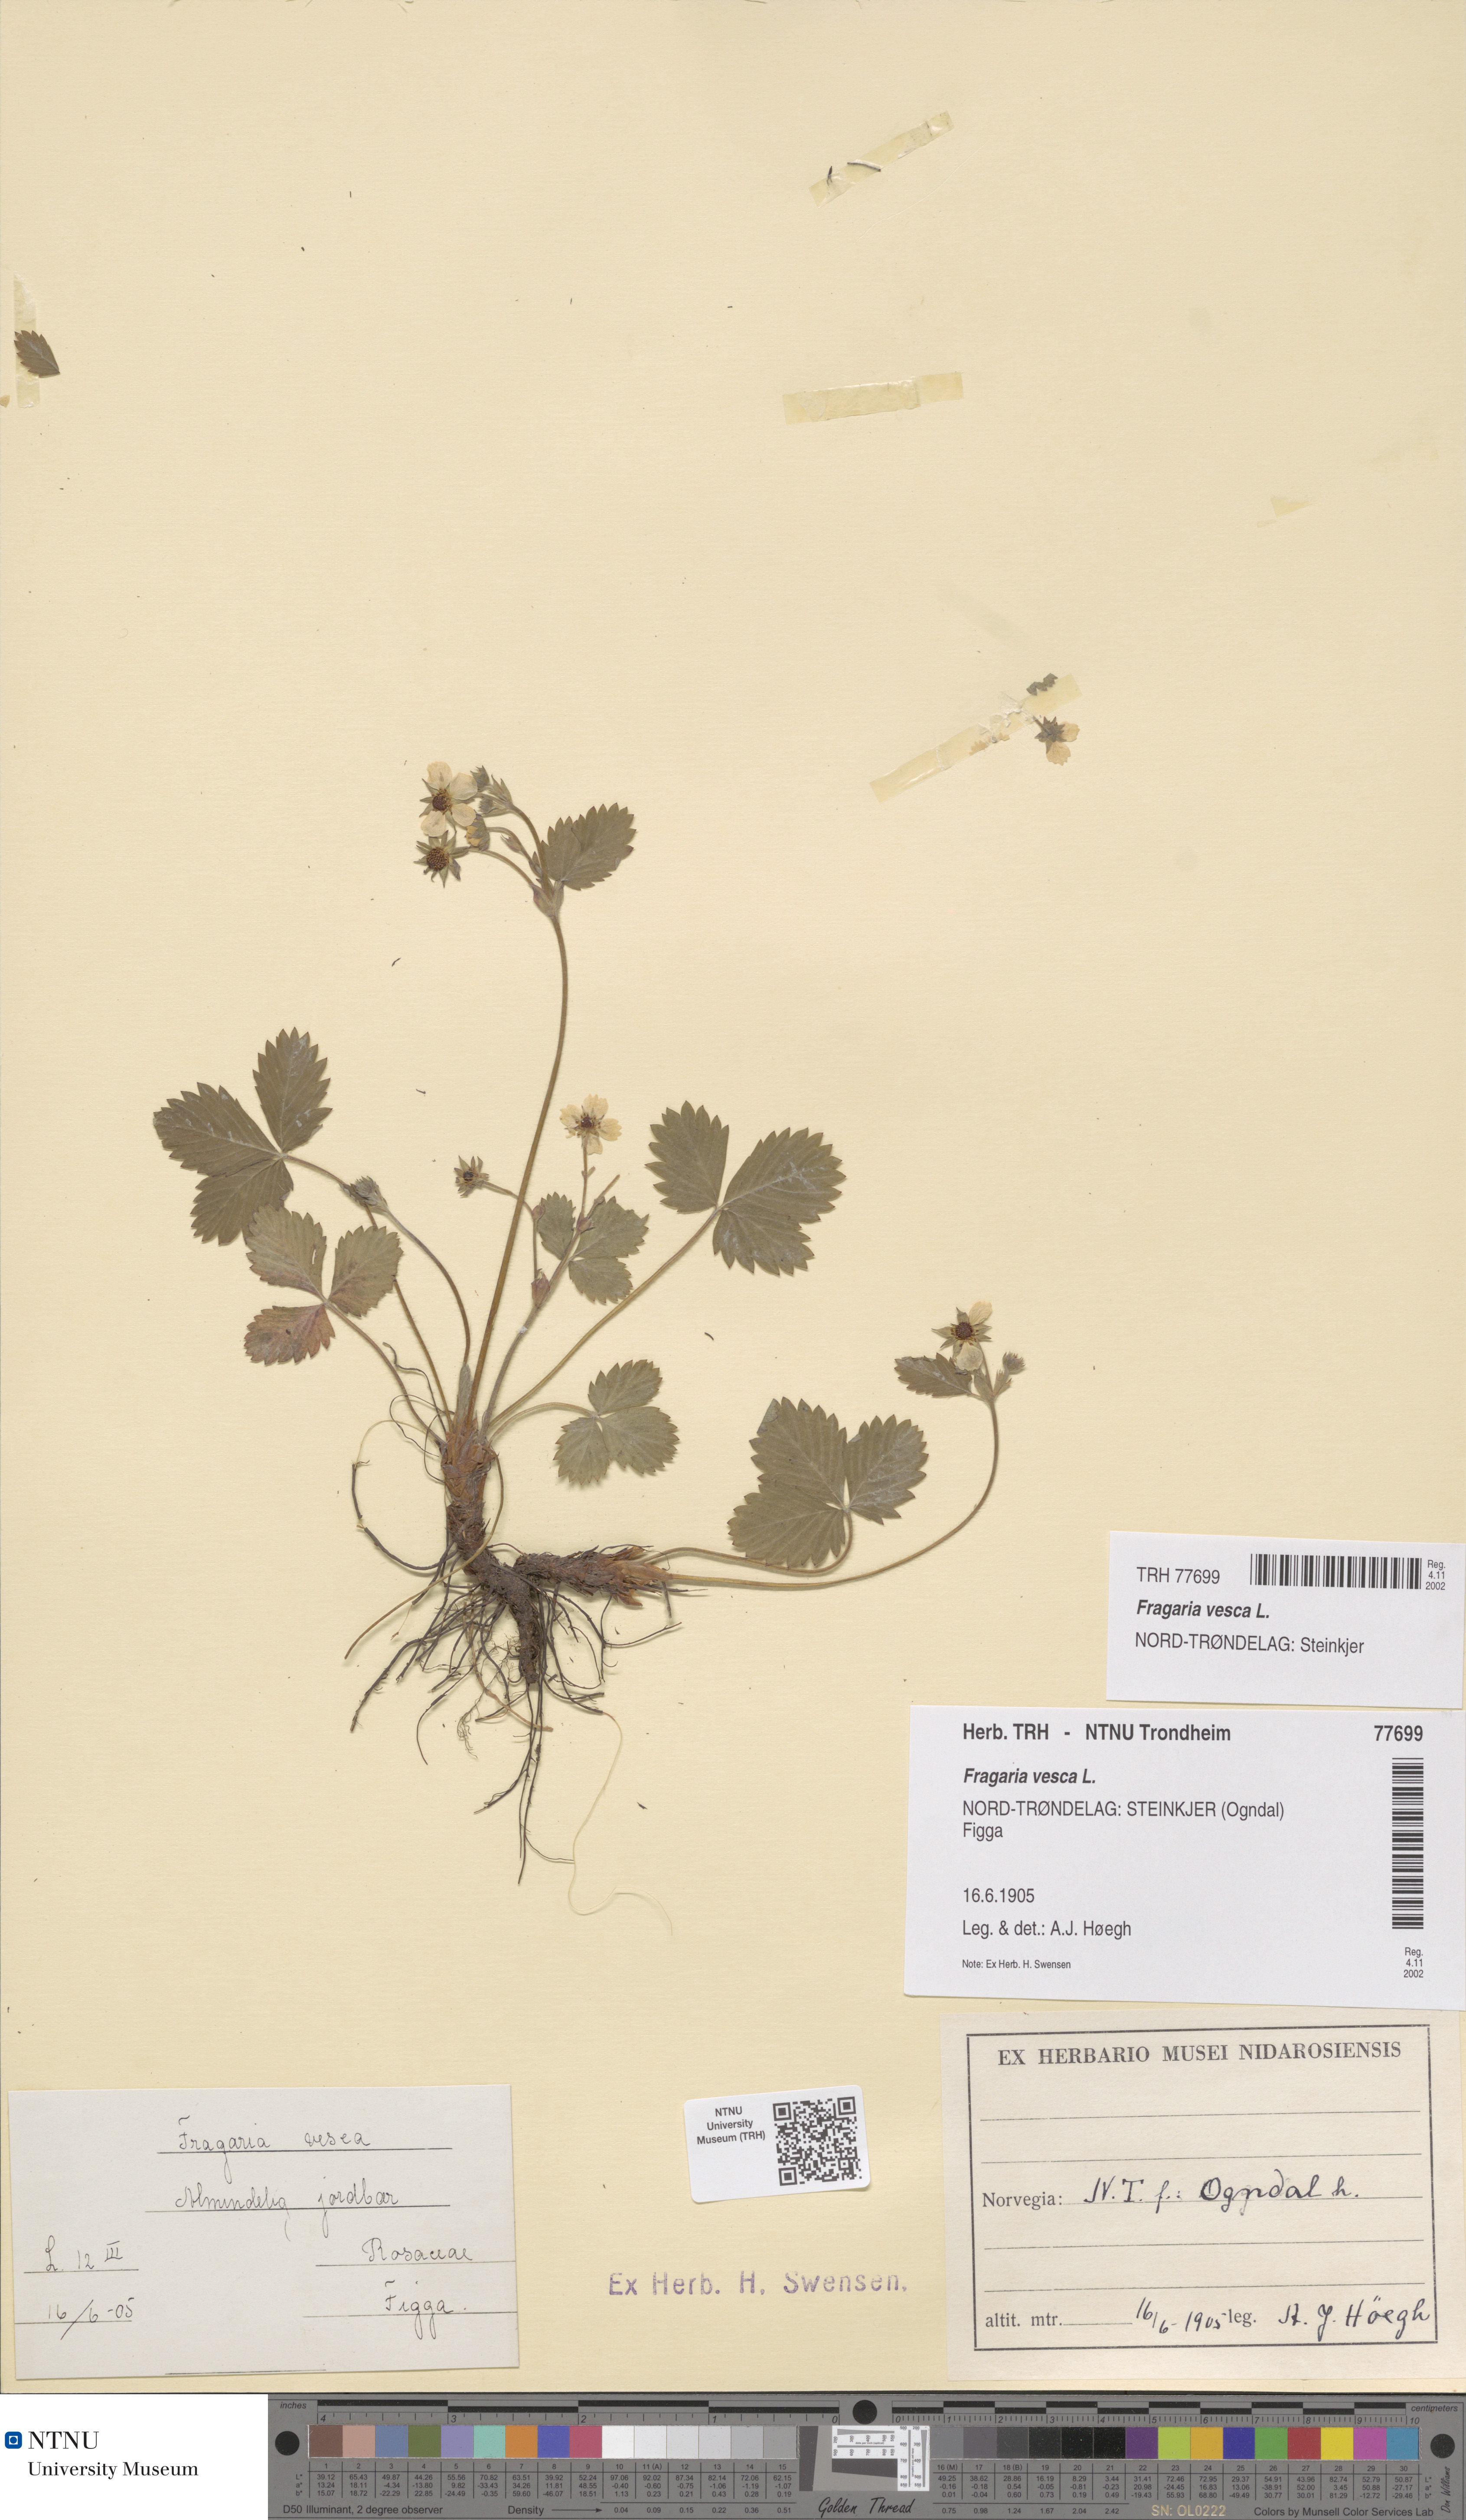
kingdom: Plantae
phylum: Tracheophyta
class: Magnoliopsida
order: Rosales
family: Rosaceae
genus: Fragaria
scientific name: Fragaria vesca
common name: Wild strawberry
